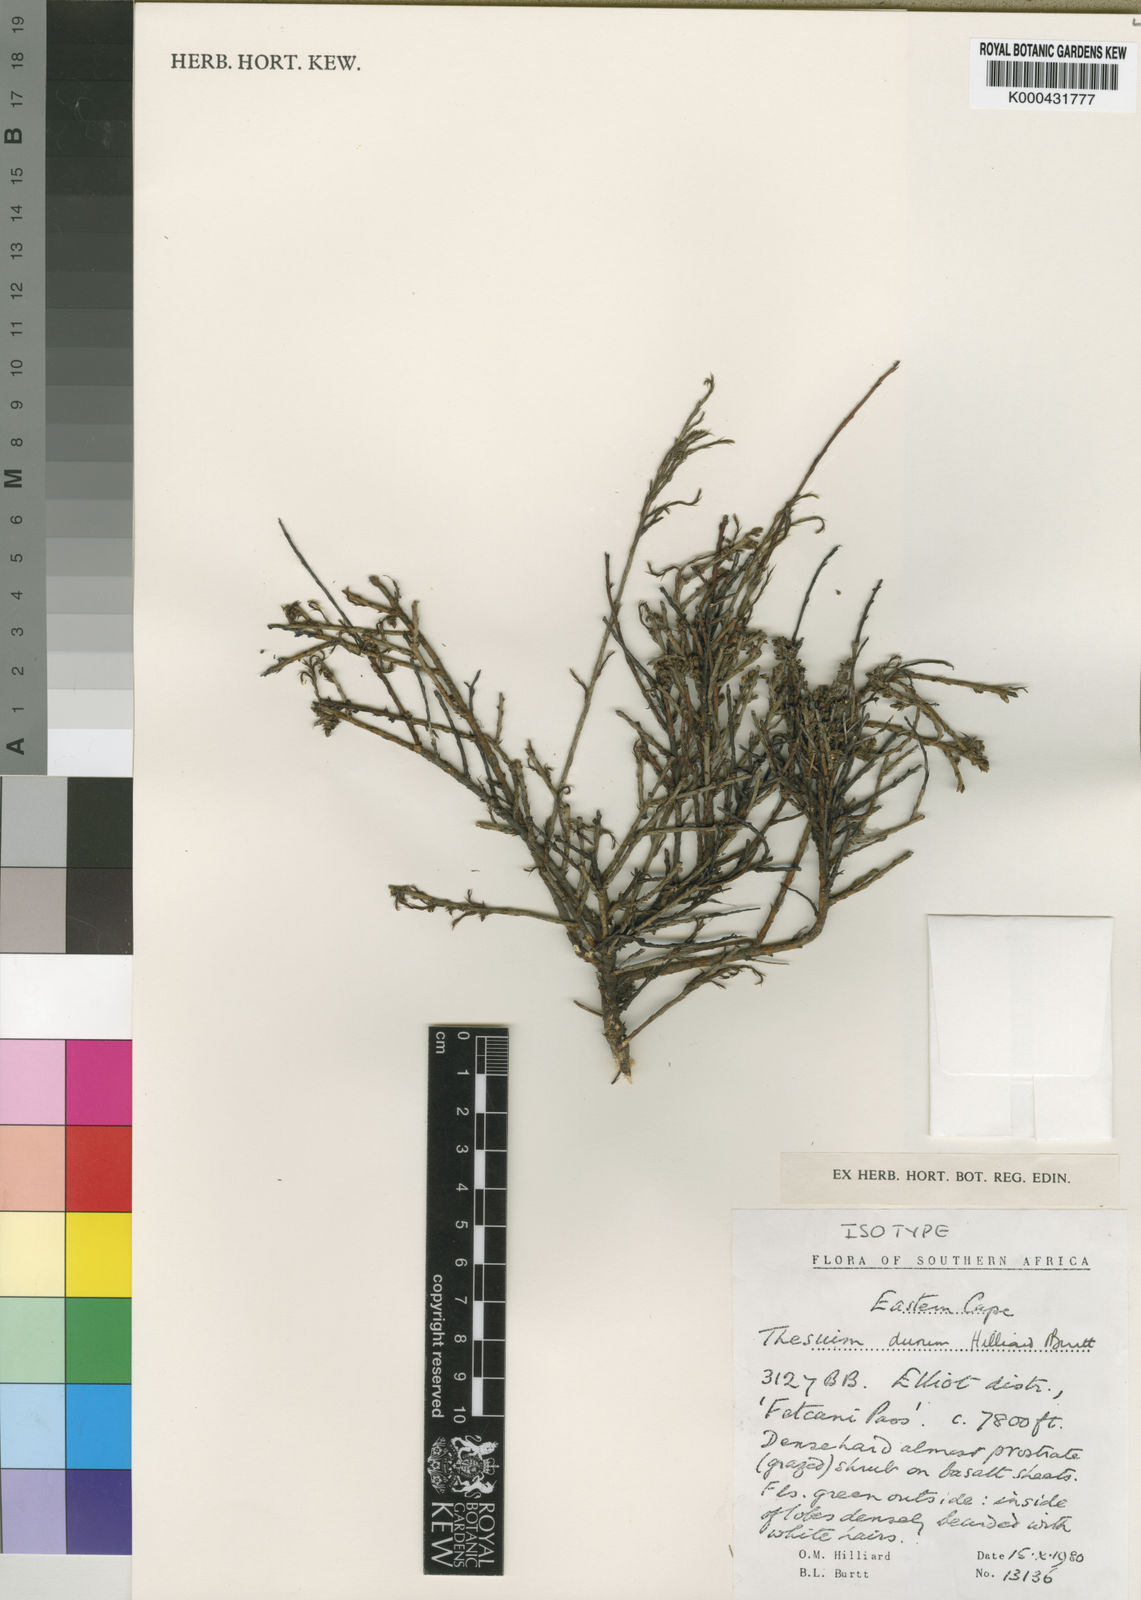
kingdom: Plantae
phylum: Tracheophyta
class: Magnoliopsida
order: Santalales
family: Thesiaceae
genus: Thesium
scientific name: Thesium durum
